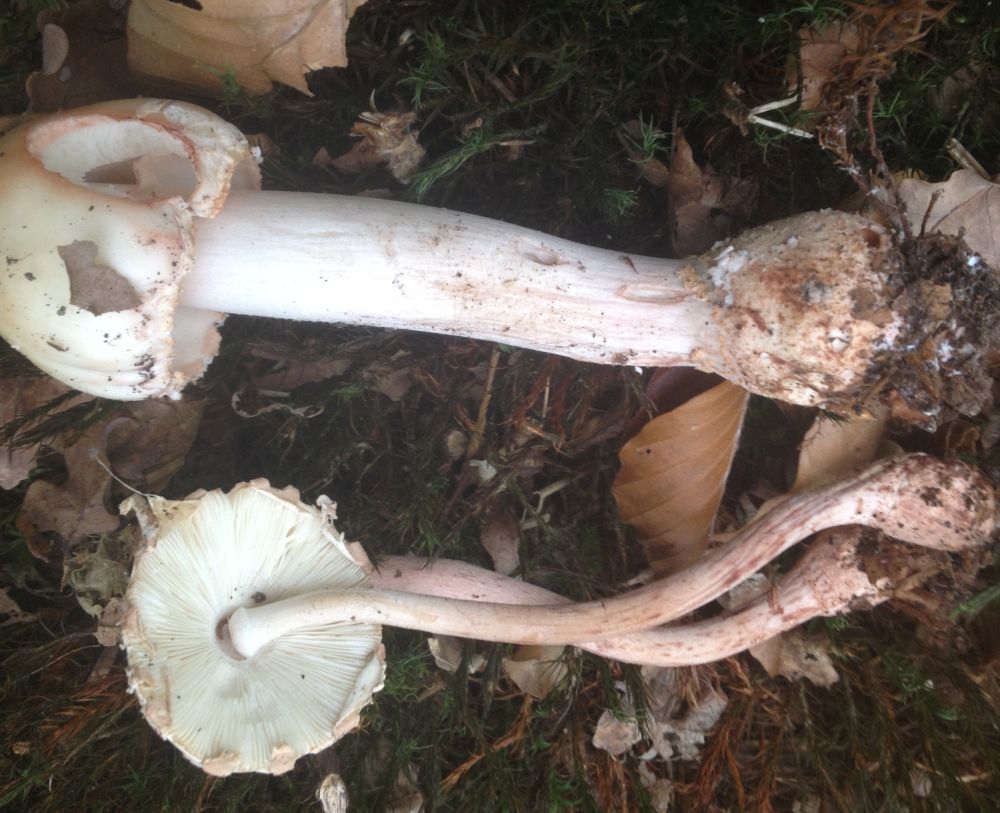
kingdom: Fungi
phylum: Basidiomycota
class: Agaricomycetes
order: Agaricales
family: Amanitaceae
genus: Amanita
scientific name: Amanita rubescens
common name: rødmende fluesvamp
